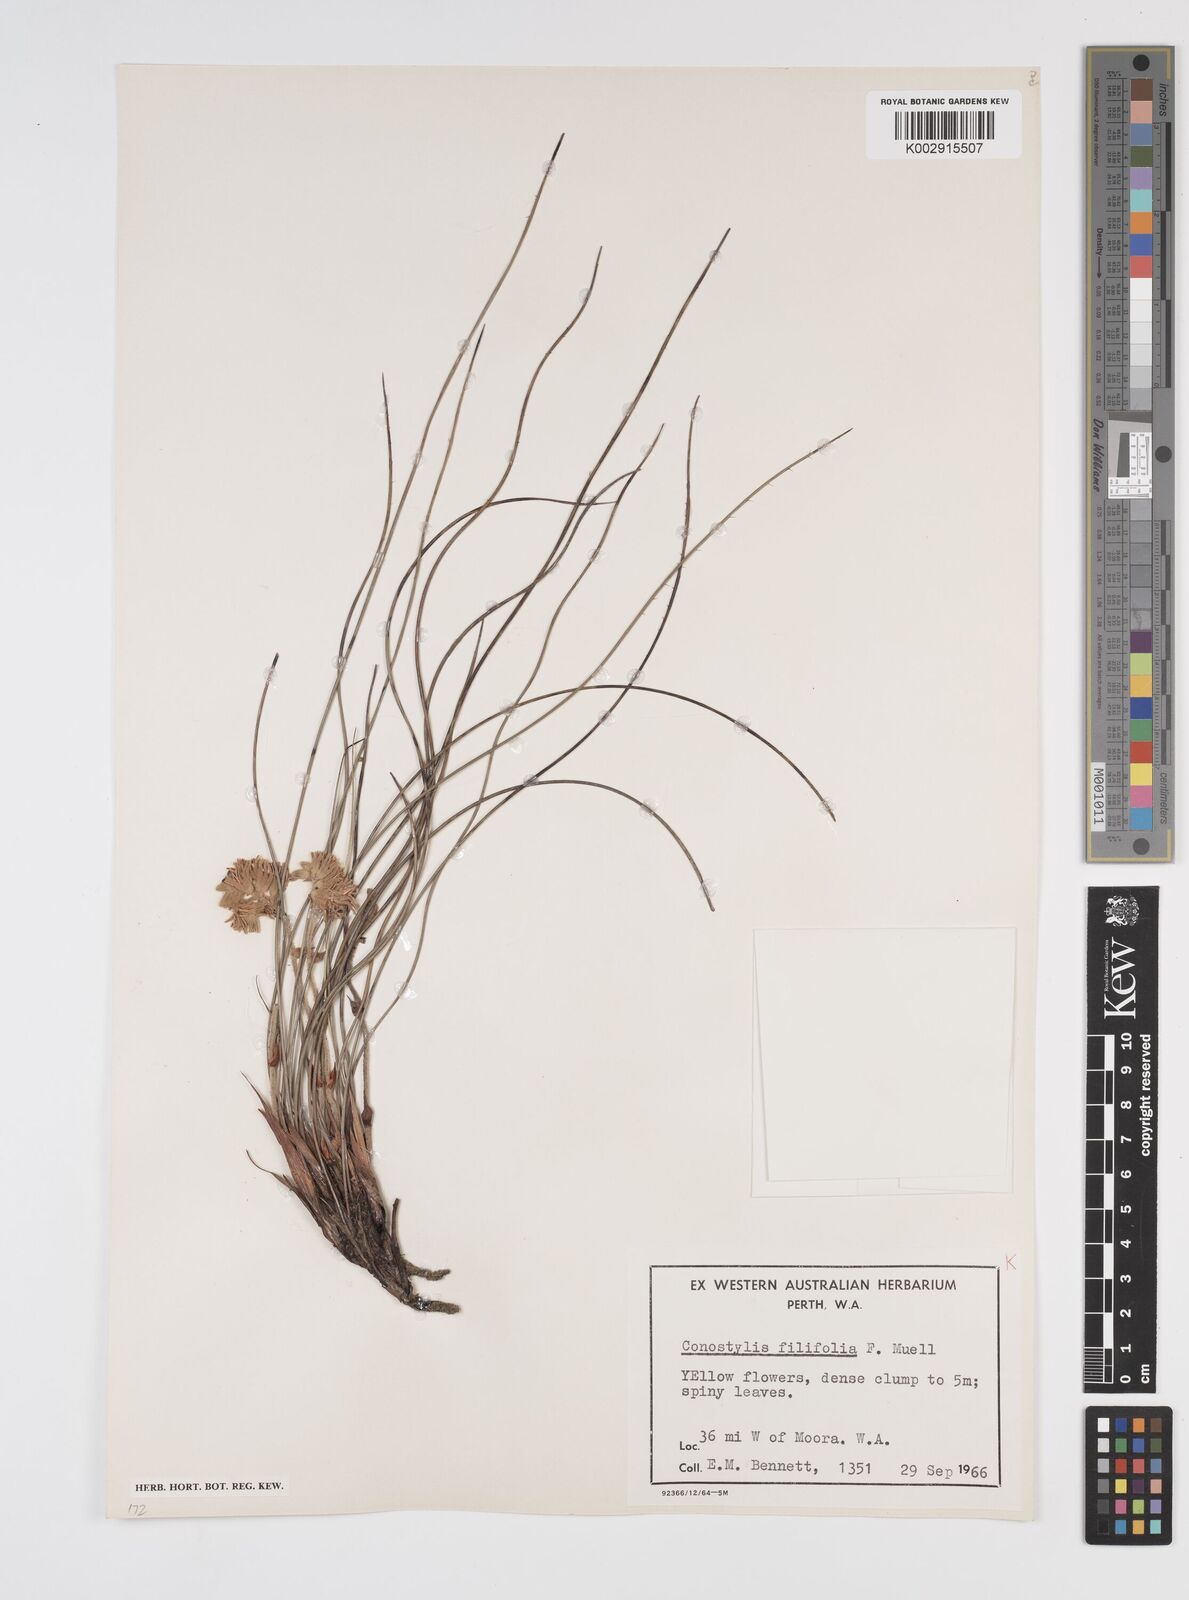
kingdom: Plantae
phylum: Tracheophyta
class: Liliopsida
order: Commelinales
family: Haemodoraceae
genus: Conostylis
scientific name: Conostylis festucacea
